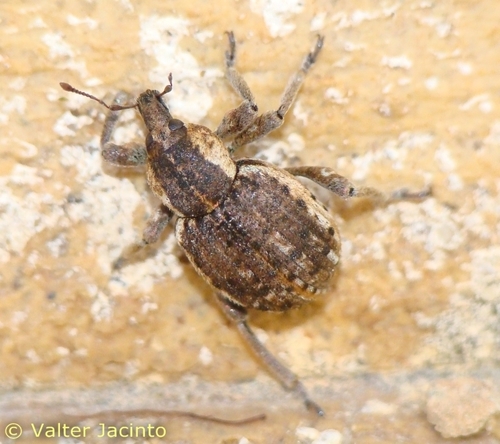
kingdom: Animalia
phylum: Arthropoda
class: Insecta
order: Coleoptera
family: Curculionidae
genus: Brachypera
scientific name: Brachypera fallax
